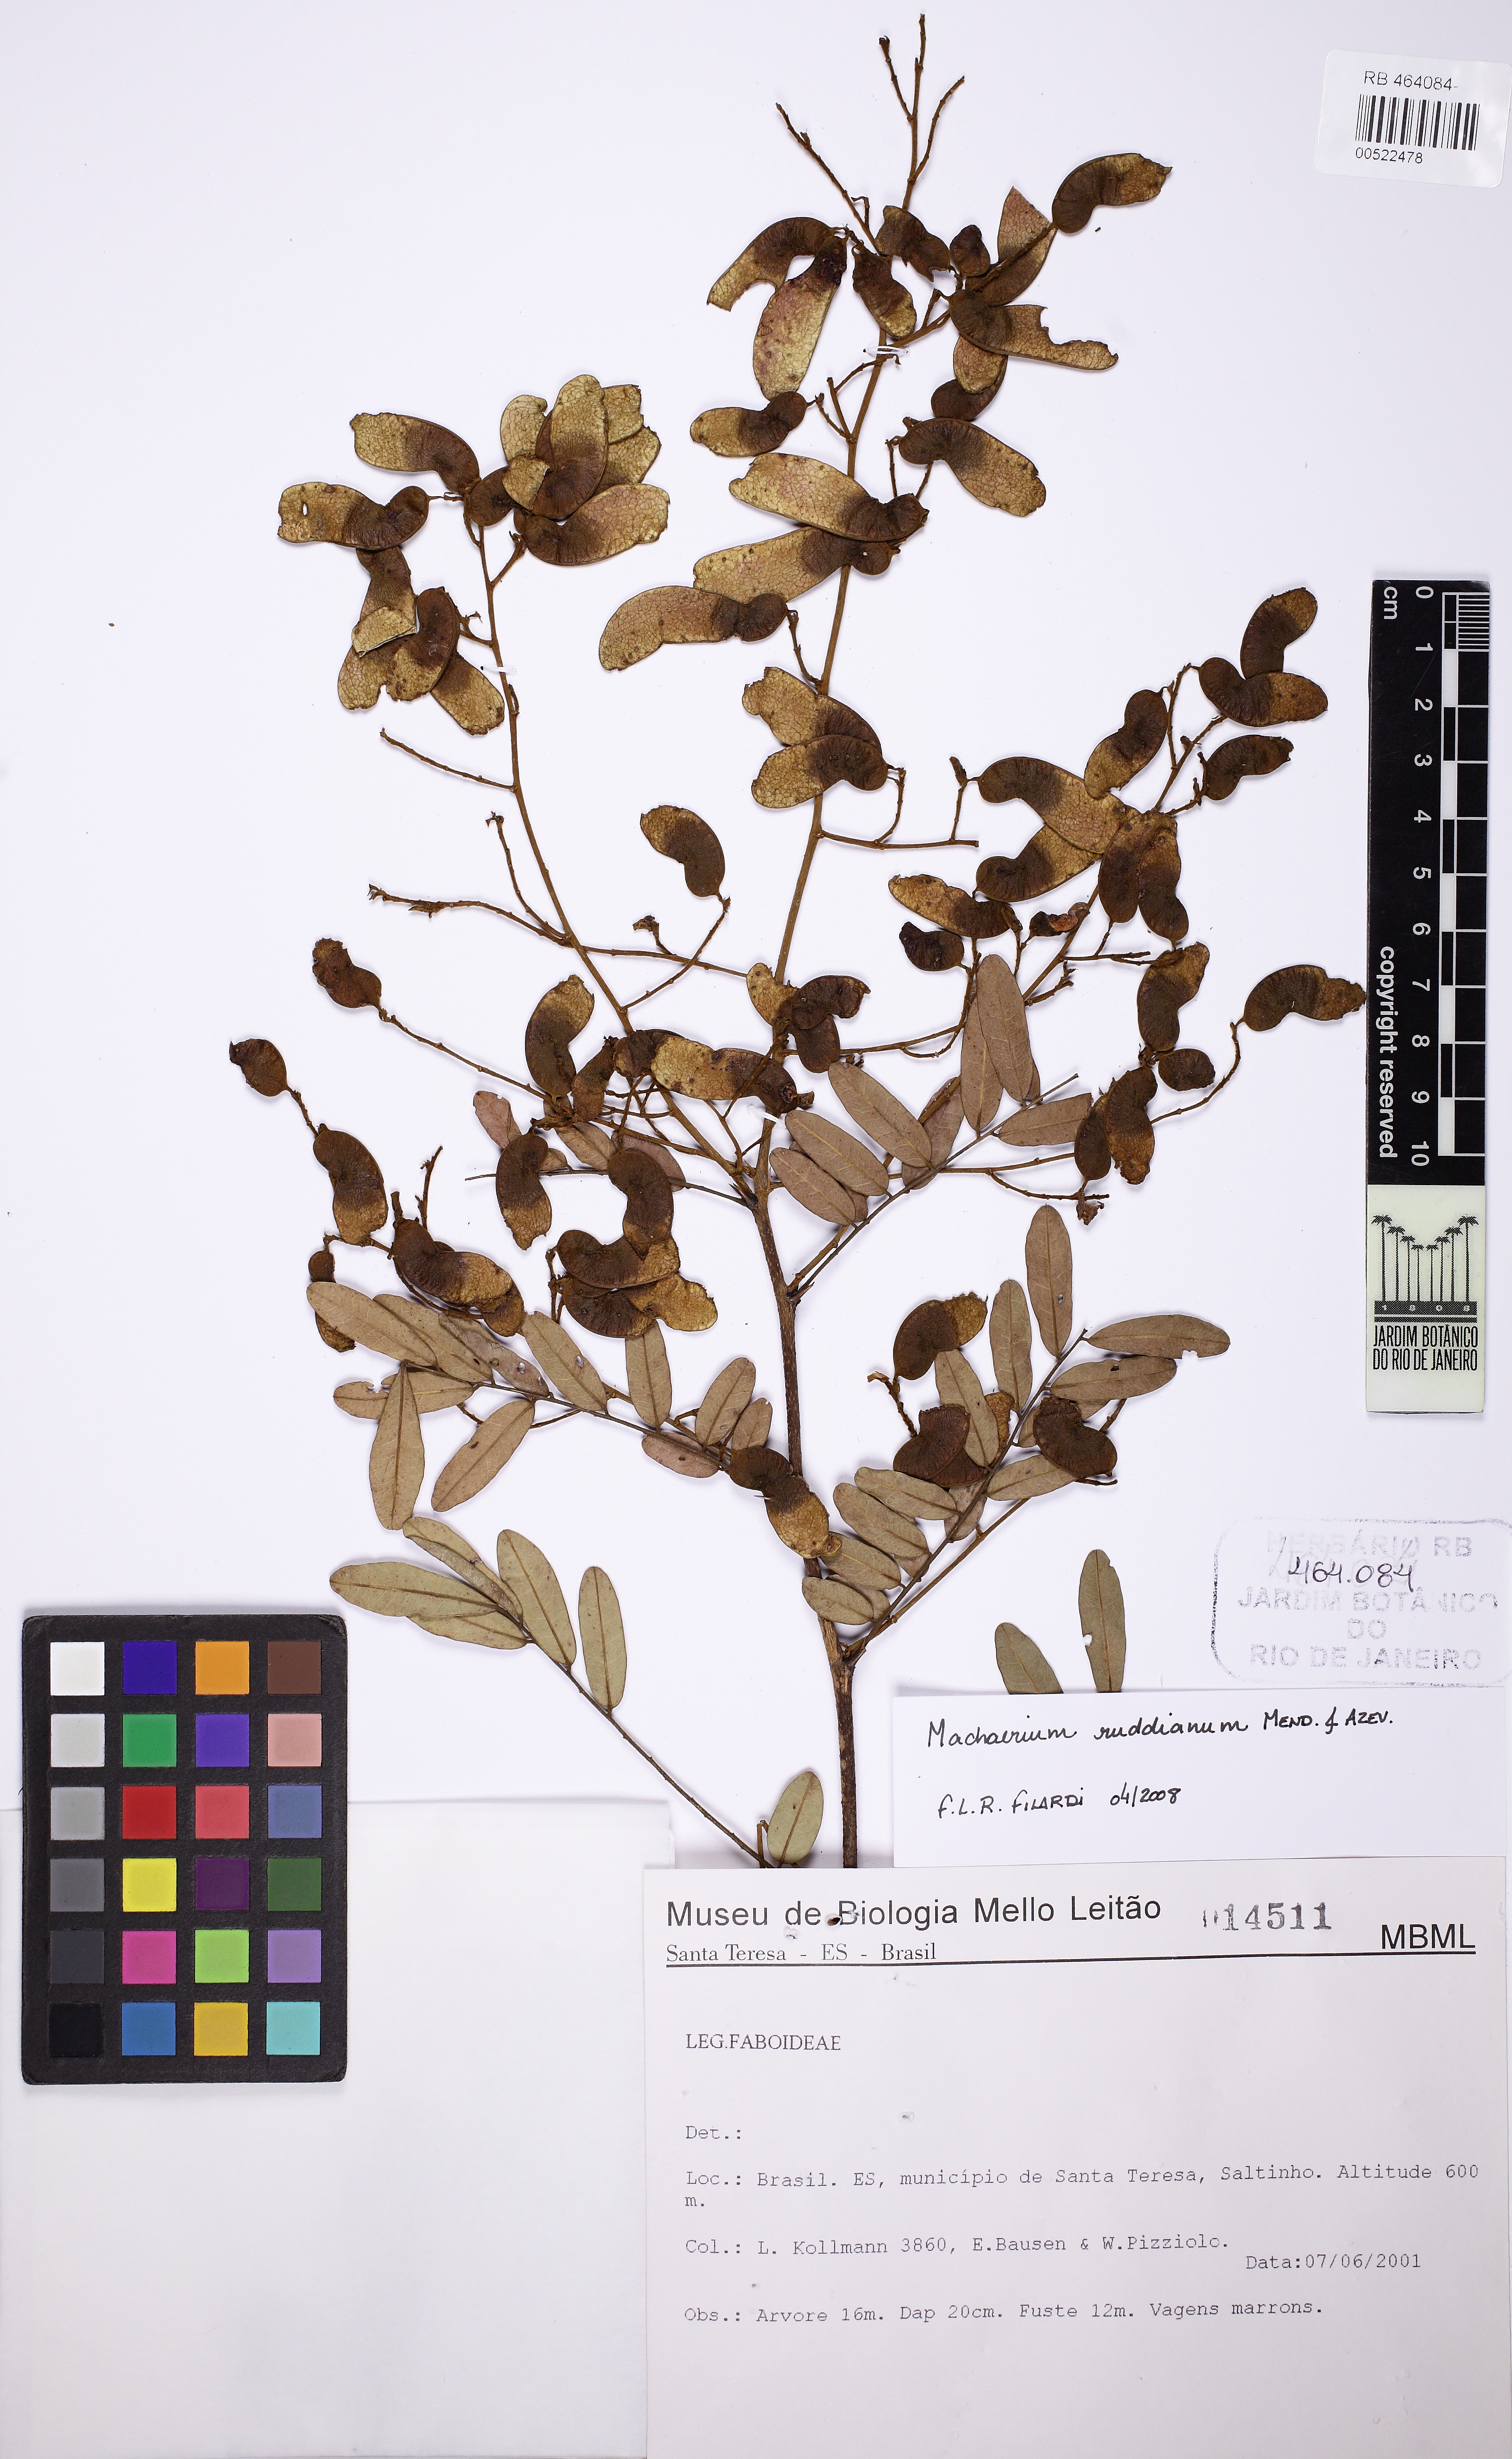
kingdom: Plantae
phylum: Tracheophyta
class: Magnoliopsida
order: Fabales
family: Fabaceae
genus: Machaerium
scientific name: Machaerium ruddianum
